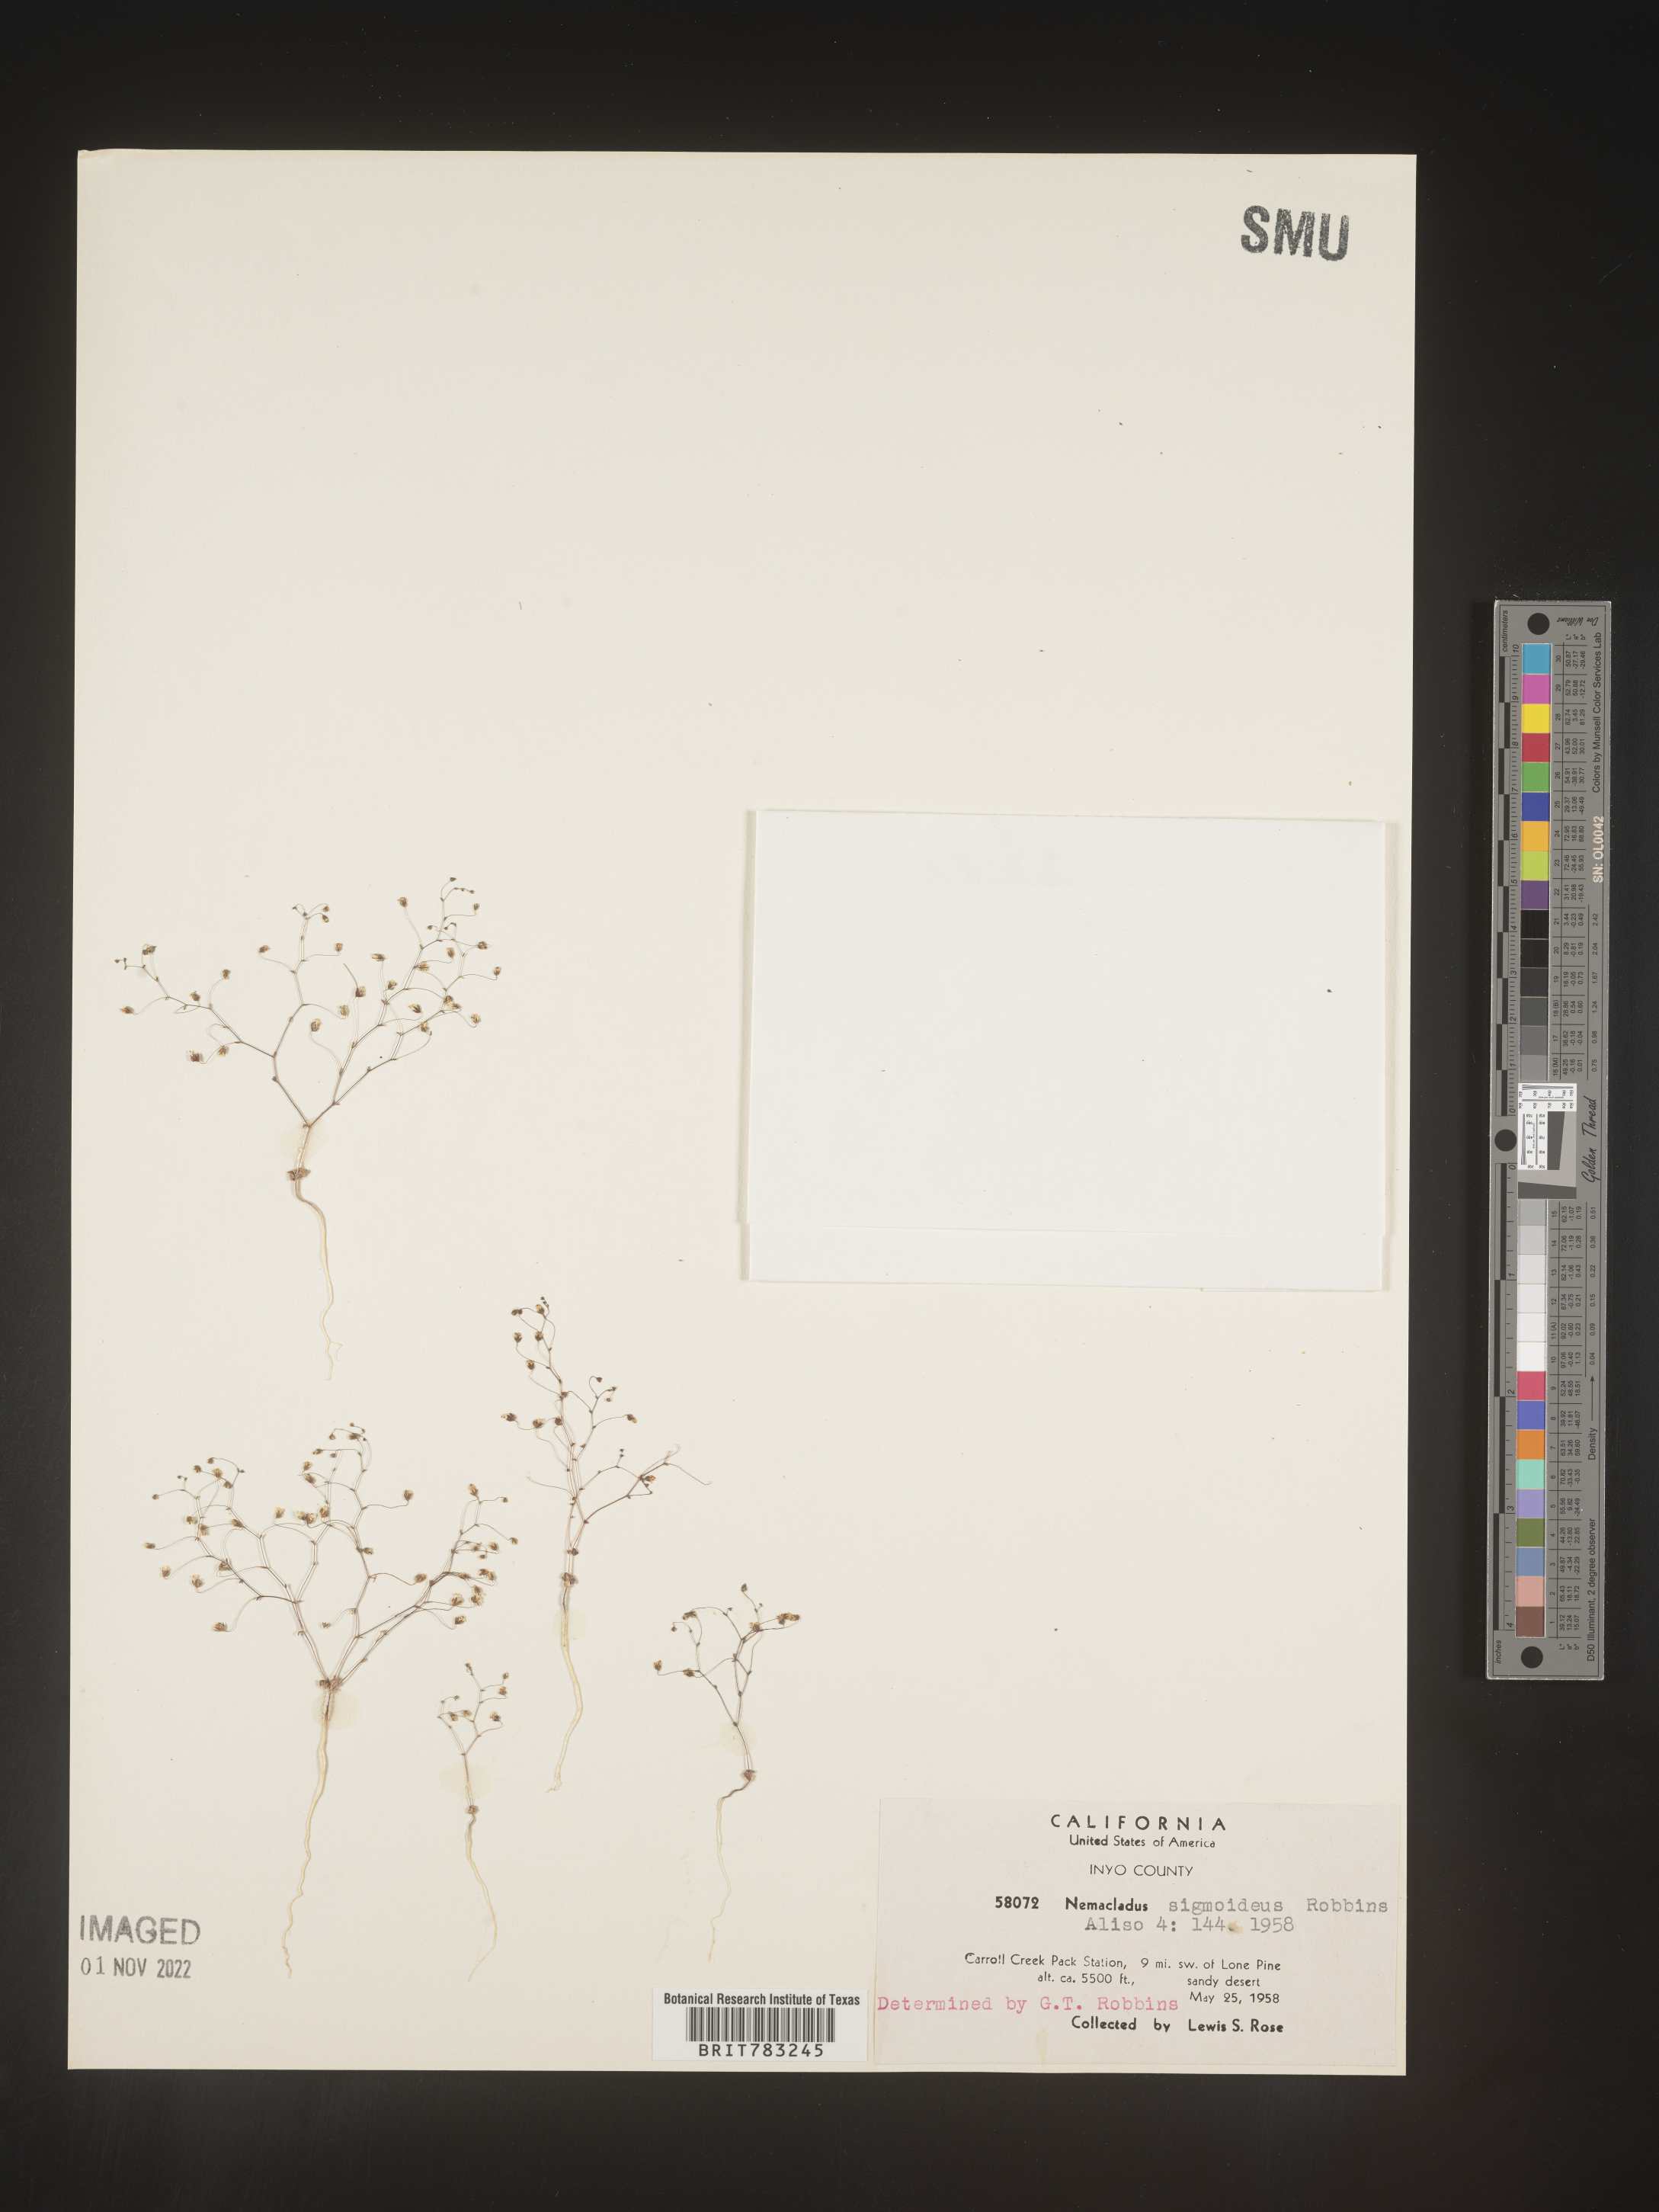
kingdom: Plantae
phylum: Tracheophyta
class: Magnoliopsida
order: Asterales
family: Campanulaceae
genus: Nemacladus
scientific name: Nemacladus
